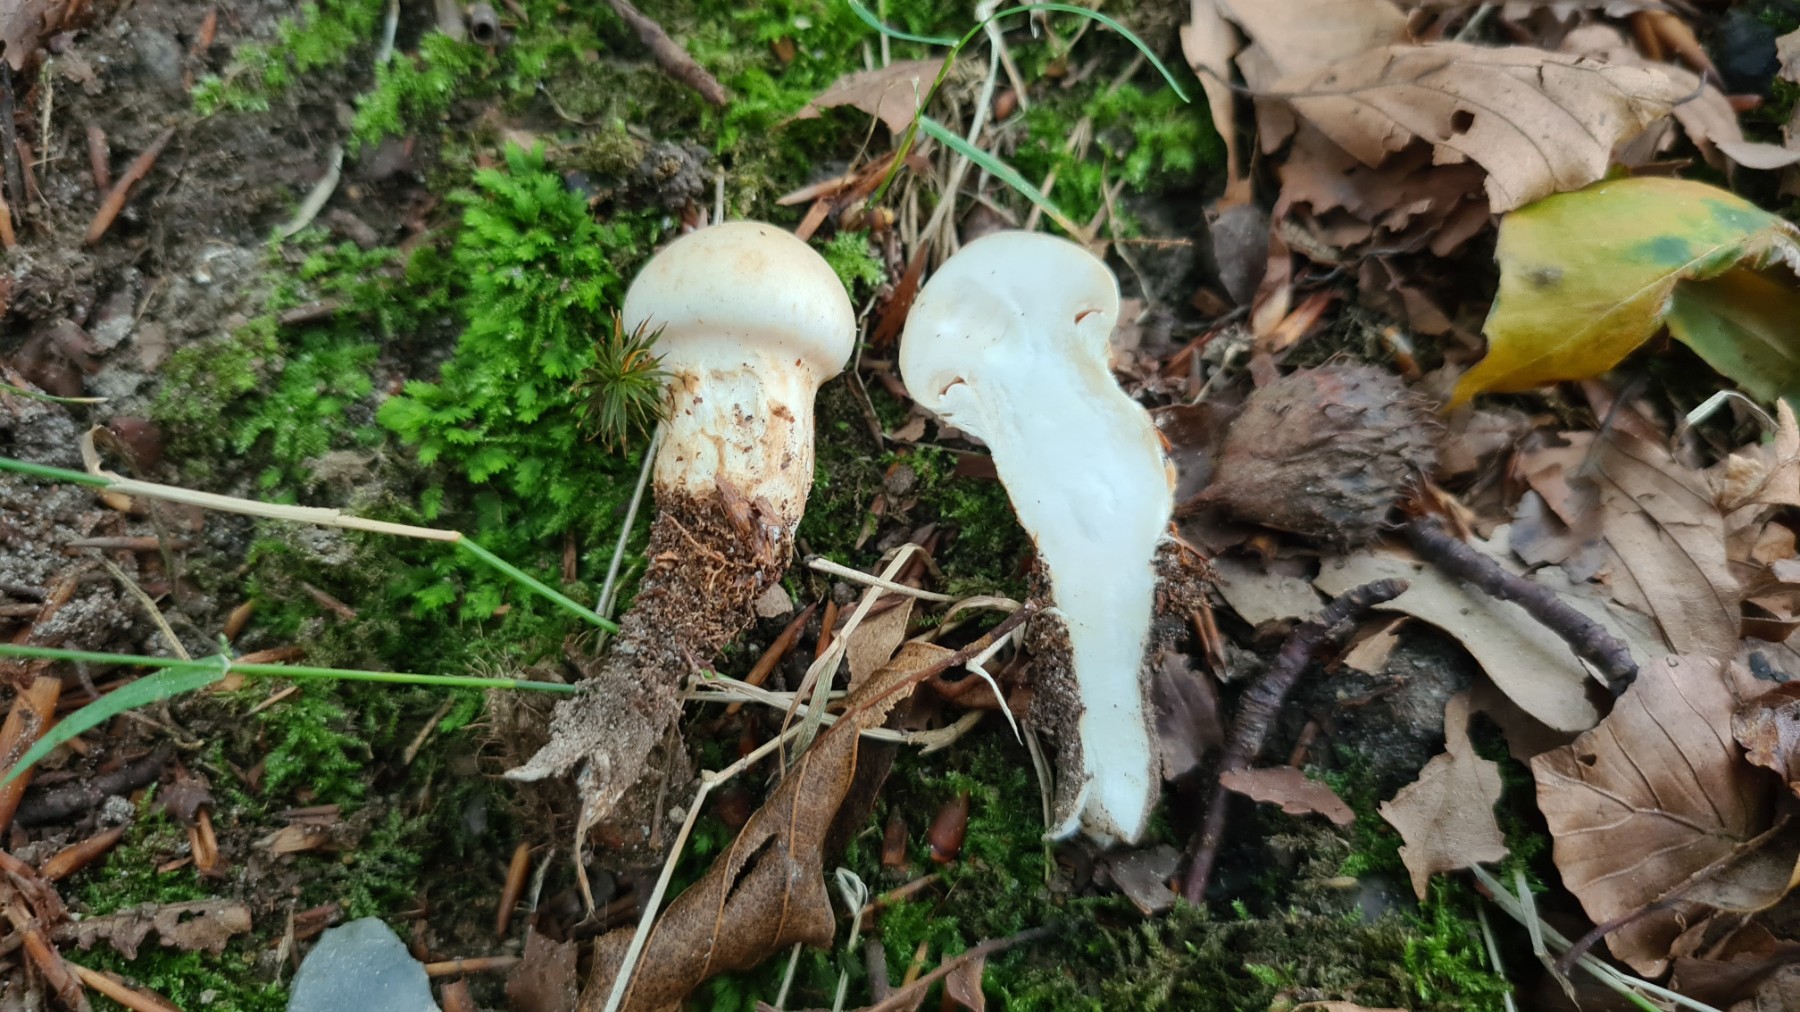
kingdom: Fungi
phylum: Basidiomycota
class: Agaricomycetes
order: Agaricales
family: Hymenogastraceae
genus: Hebeloma
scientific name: Hebeloma radicosum
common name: pælerods-tåreblad
